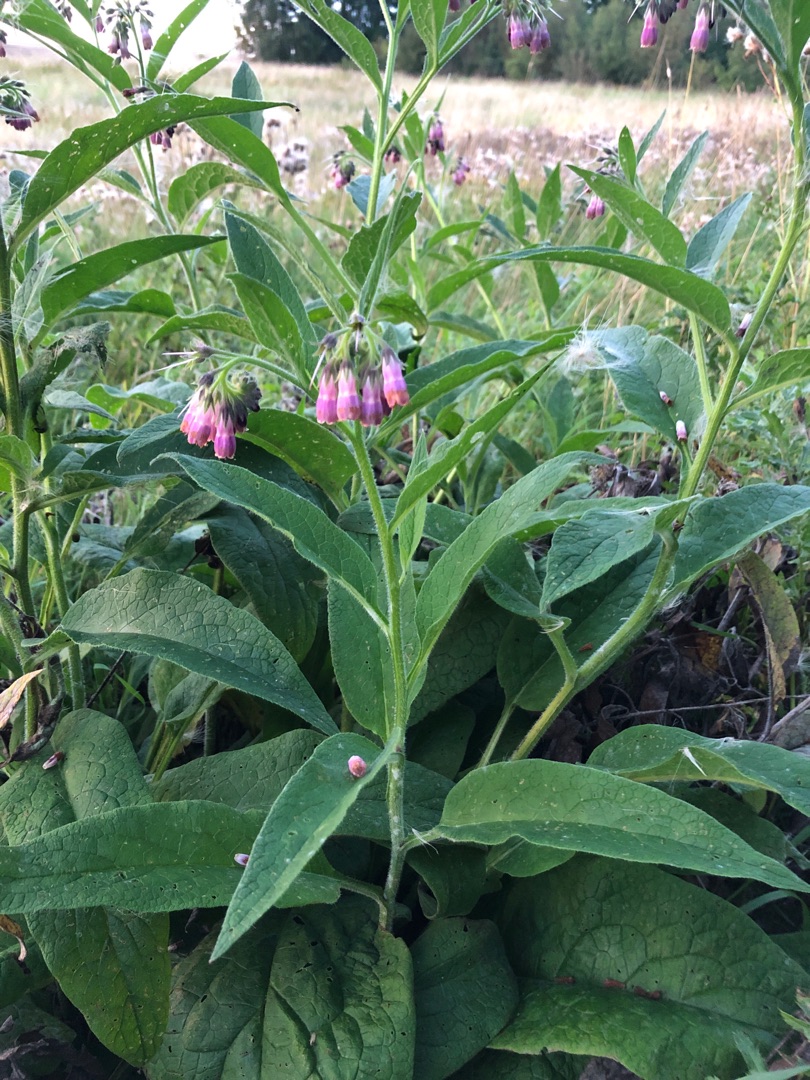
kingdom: Plantae
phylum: Tracheophyta
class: Magnoliopsida
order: Boraginales
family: Boraginaceae
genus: Symphytum
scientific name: Symphytum uplandicum
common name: Foder-kulsukker
